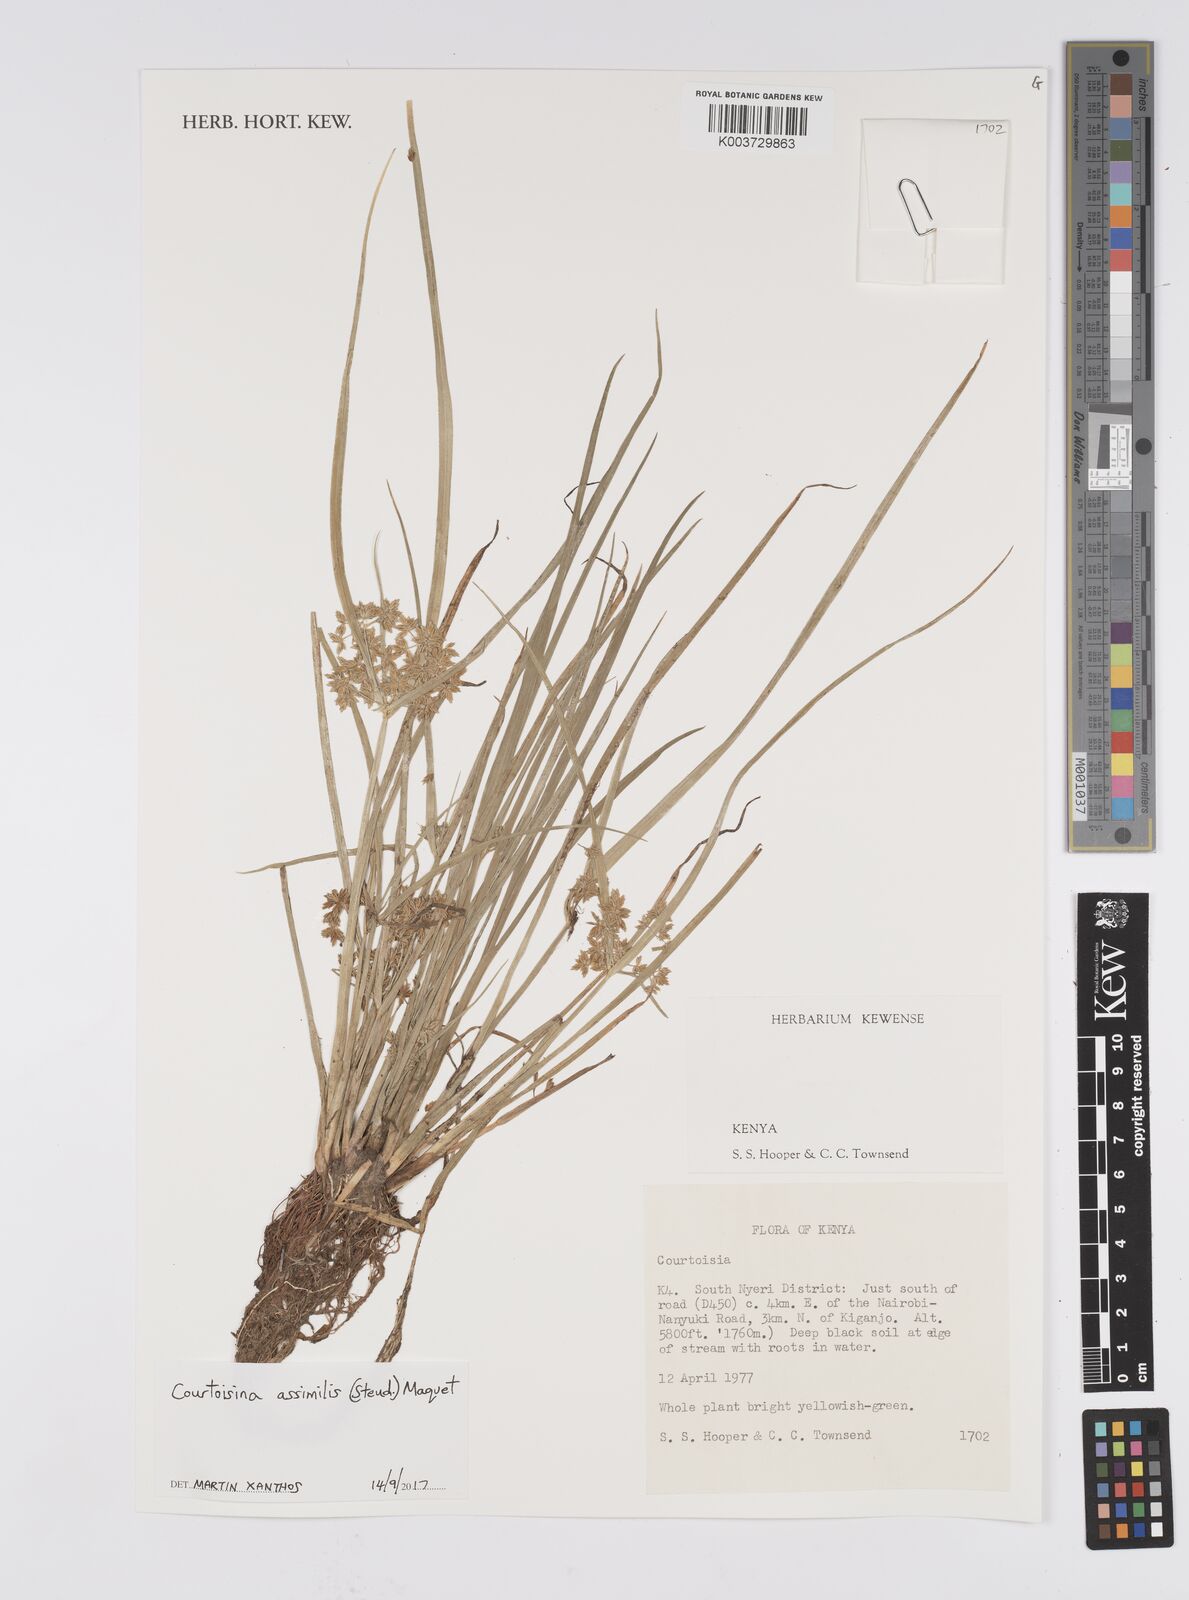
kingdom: Plantae
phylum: Tracheophyta
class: Liliopsida
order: Poales
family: Cyperaceae
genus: Cyperus
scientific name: Cyperus assimilis
